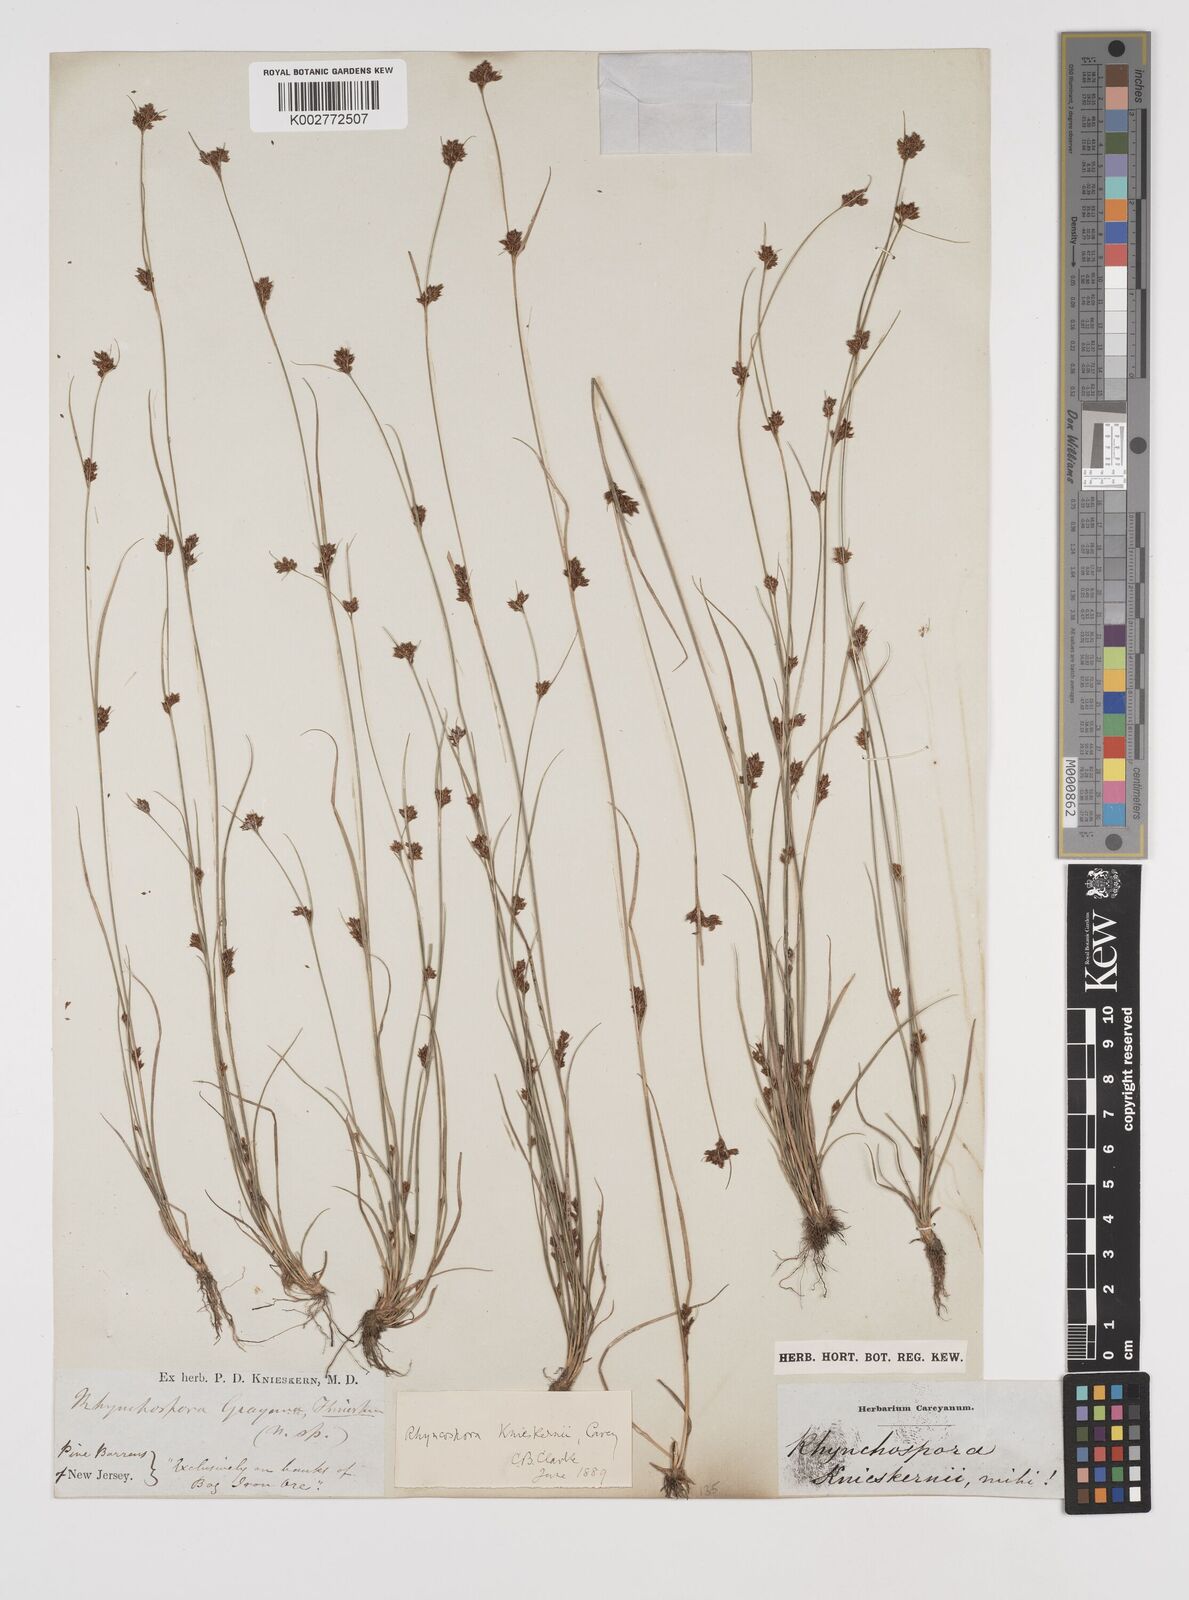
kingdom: Plantae
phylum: Tracheophyta
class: Liliopsida
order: Poales
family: Cyperaceae
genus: Rhynchospora
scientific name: Rhynchospora
